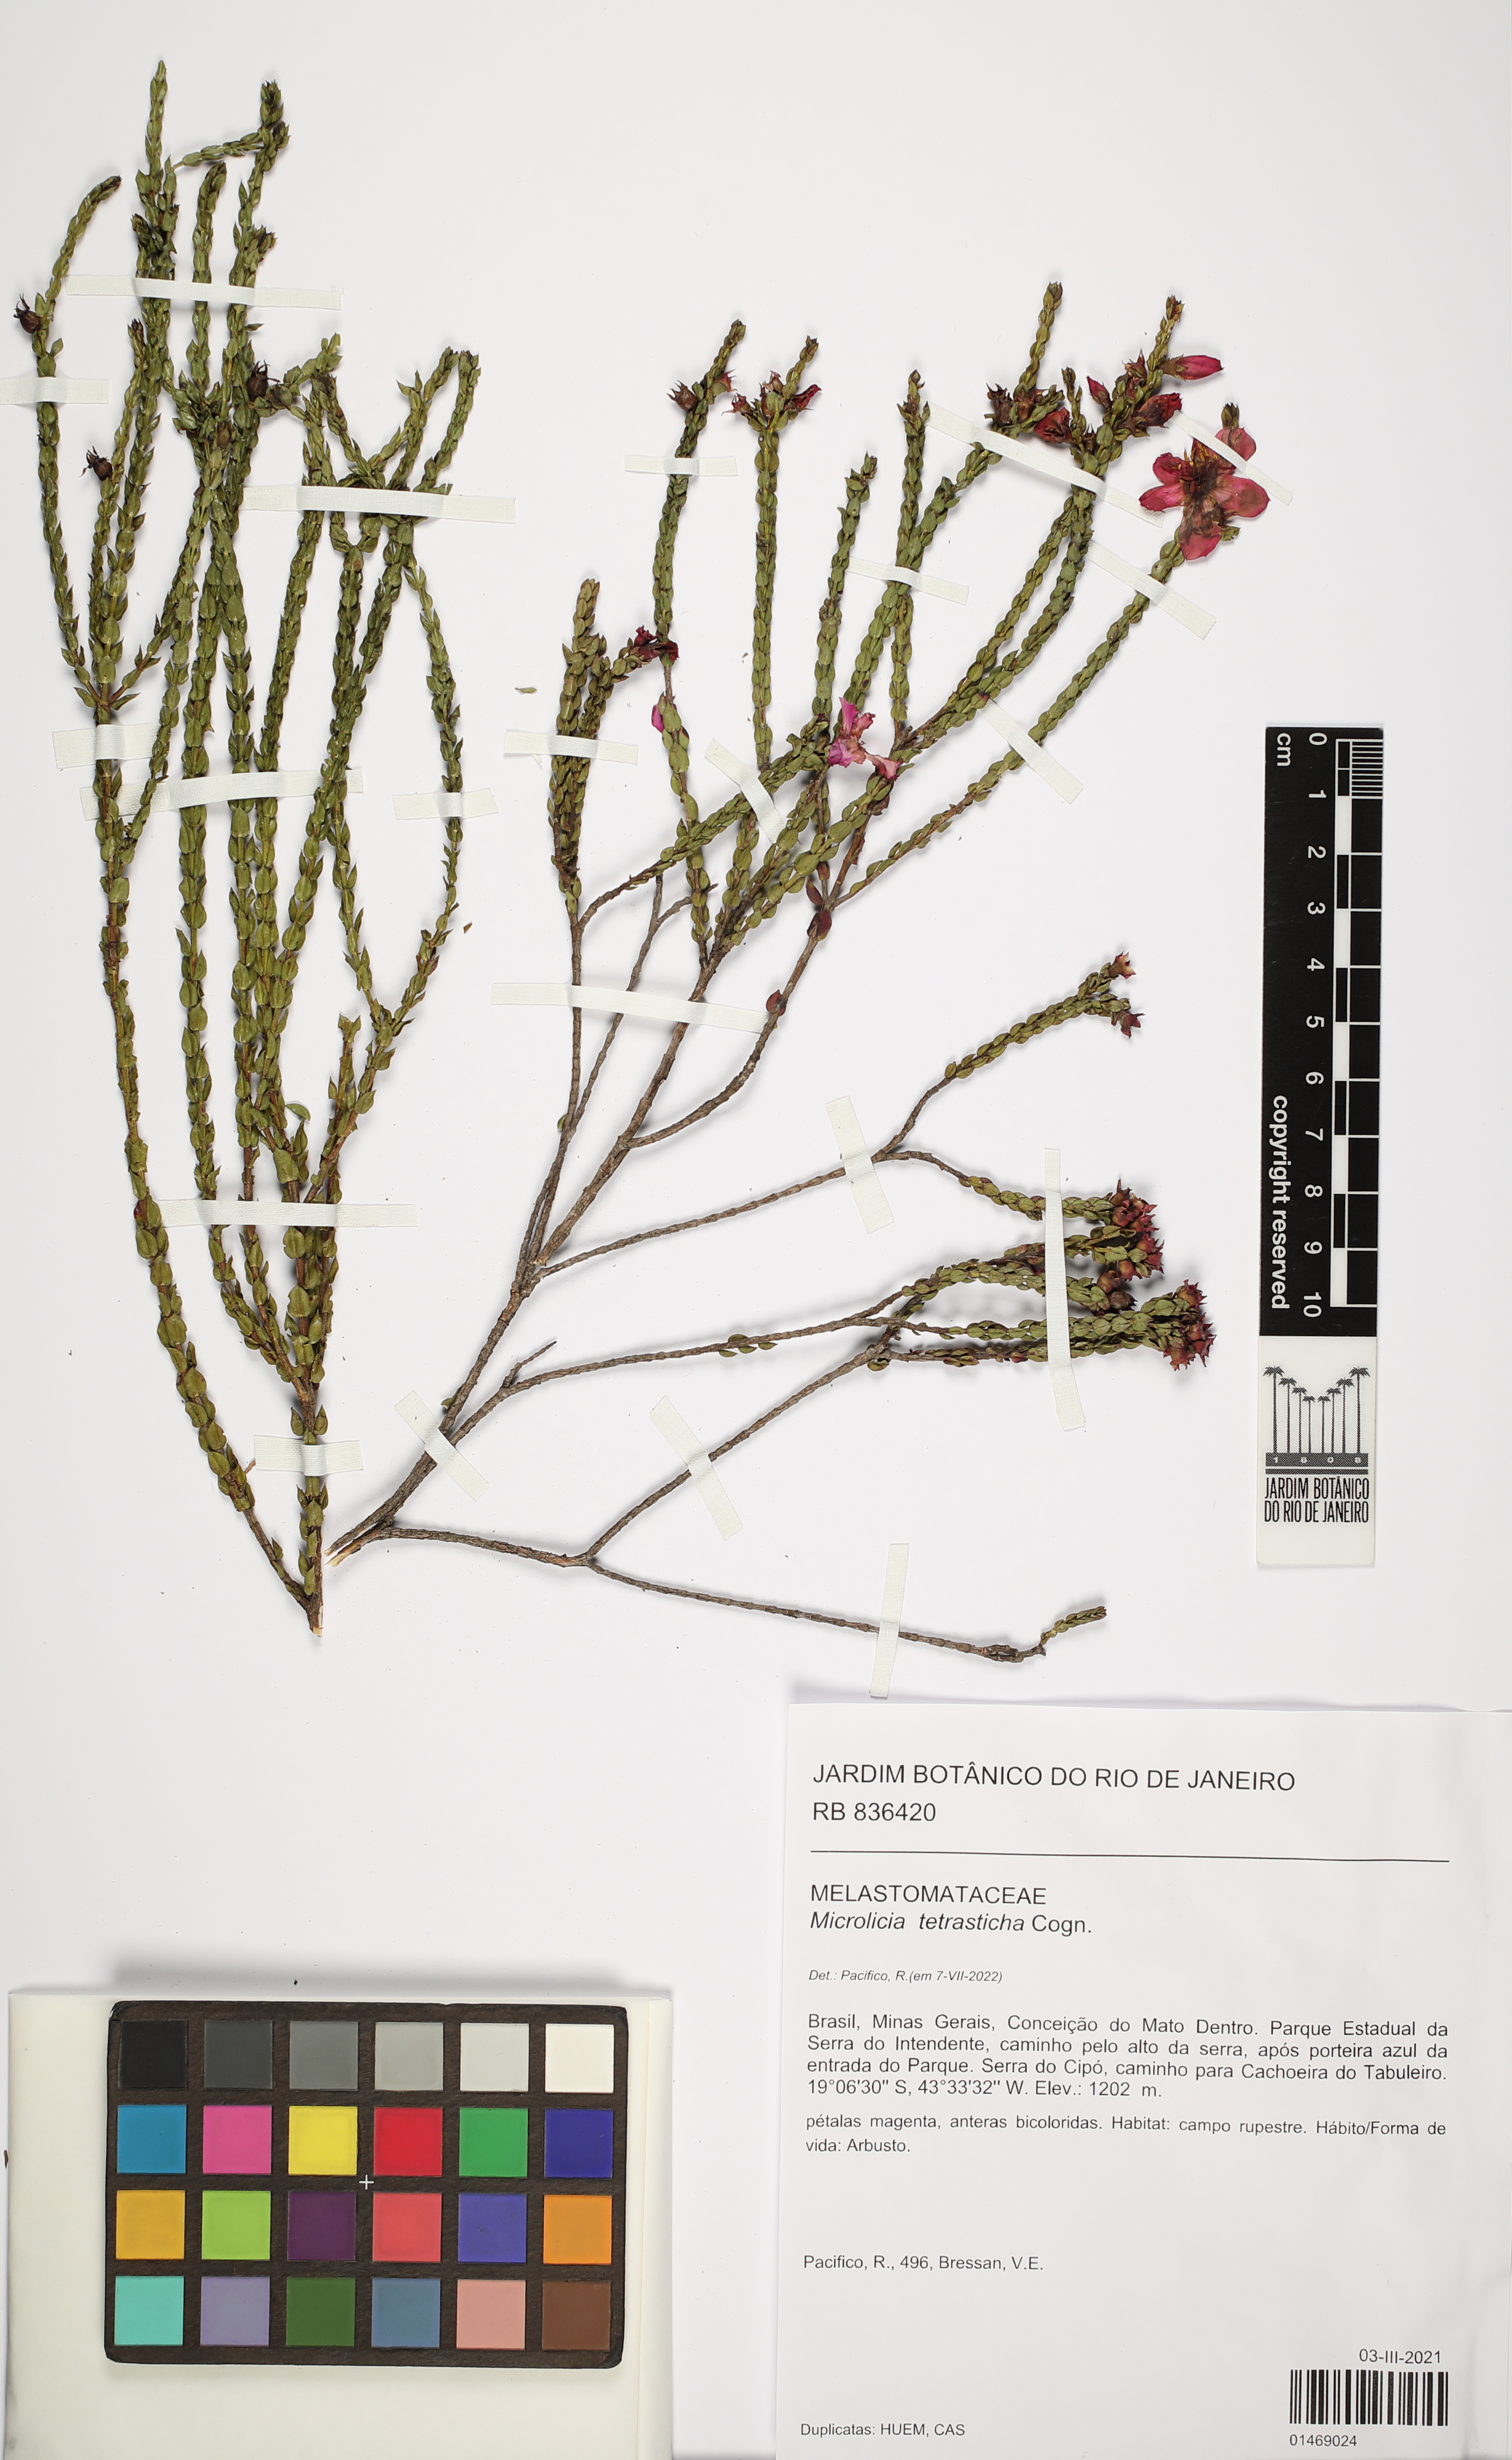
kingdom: Plantae
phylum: Tracheophyta
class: Magnoliopsida
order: Myrtales
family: Melastomataceae
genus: Microlicia
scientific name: Microlicia tetrasticha
